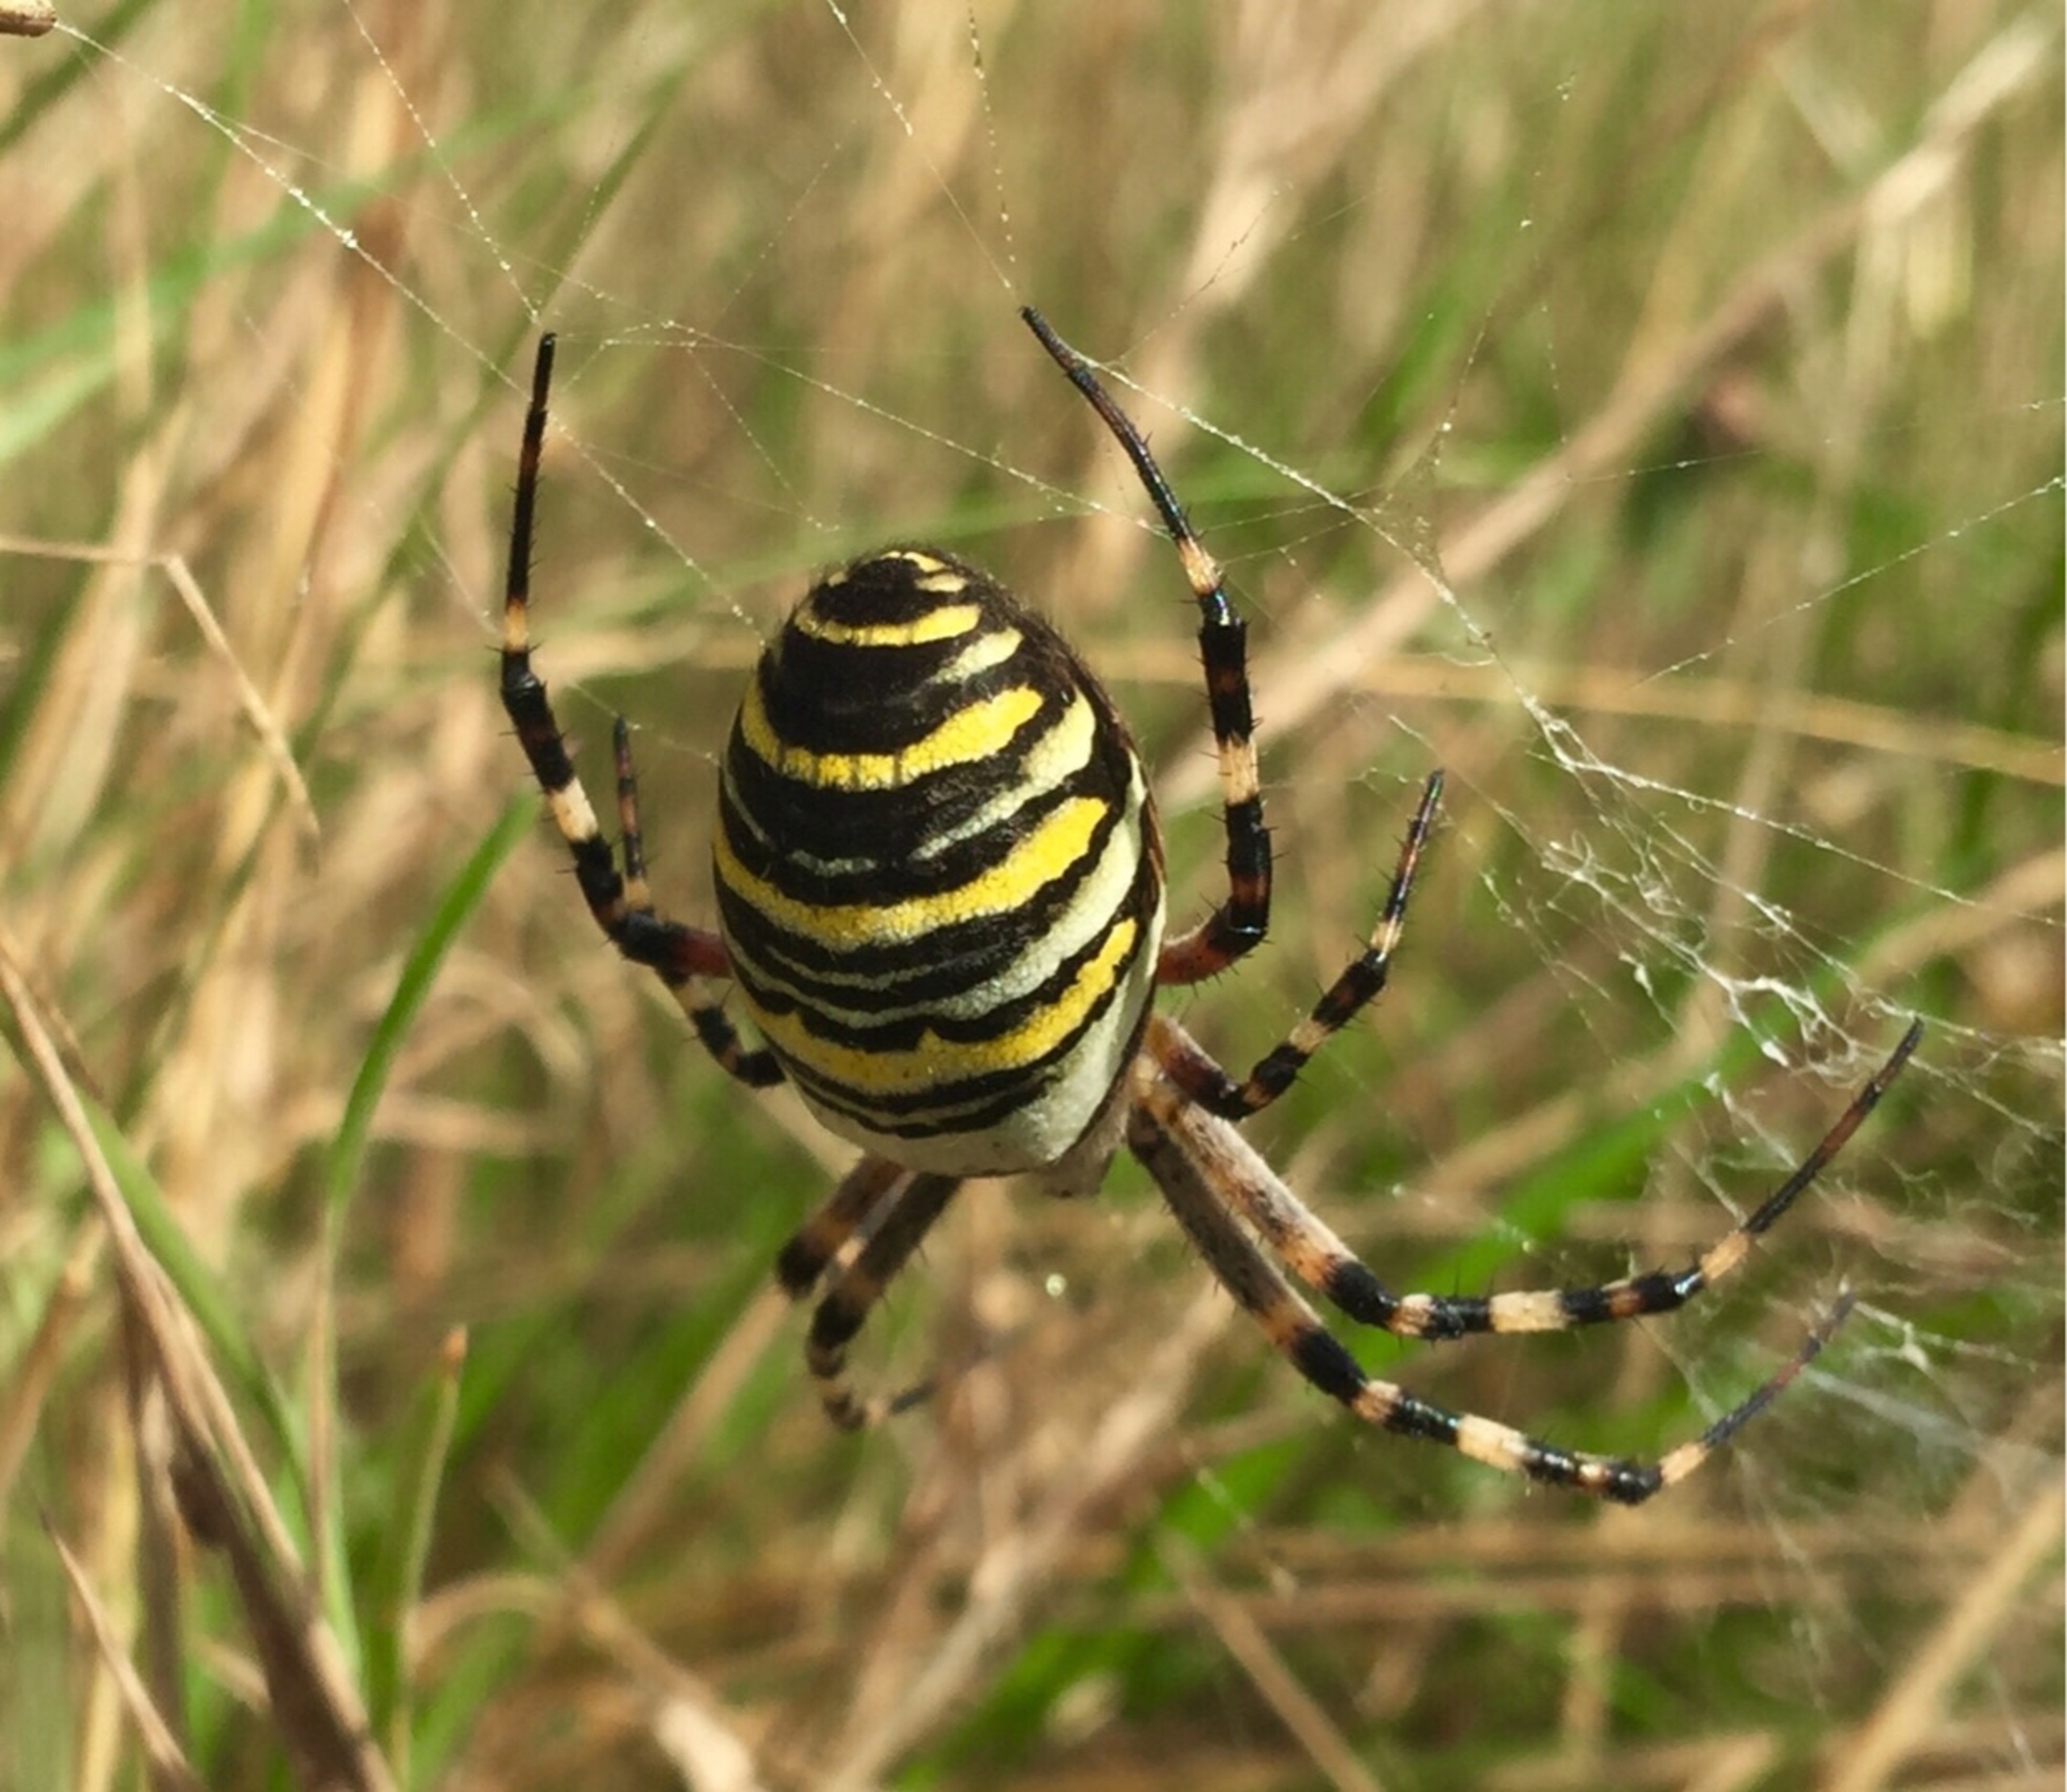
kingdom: Animalia
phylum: Arthropoda
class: Arachnida
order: Araneae
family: Araneidae
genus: Argiope
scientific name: Argiope bruennichi
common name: Hvepseedderkop
